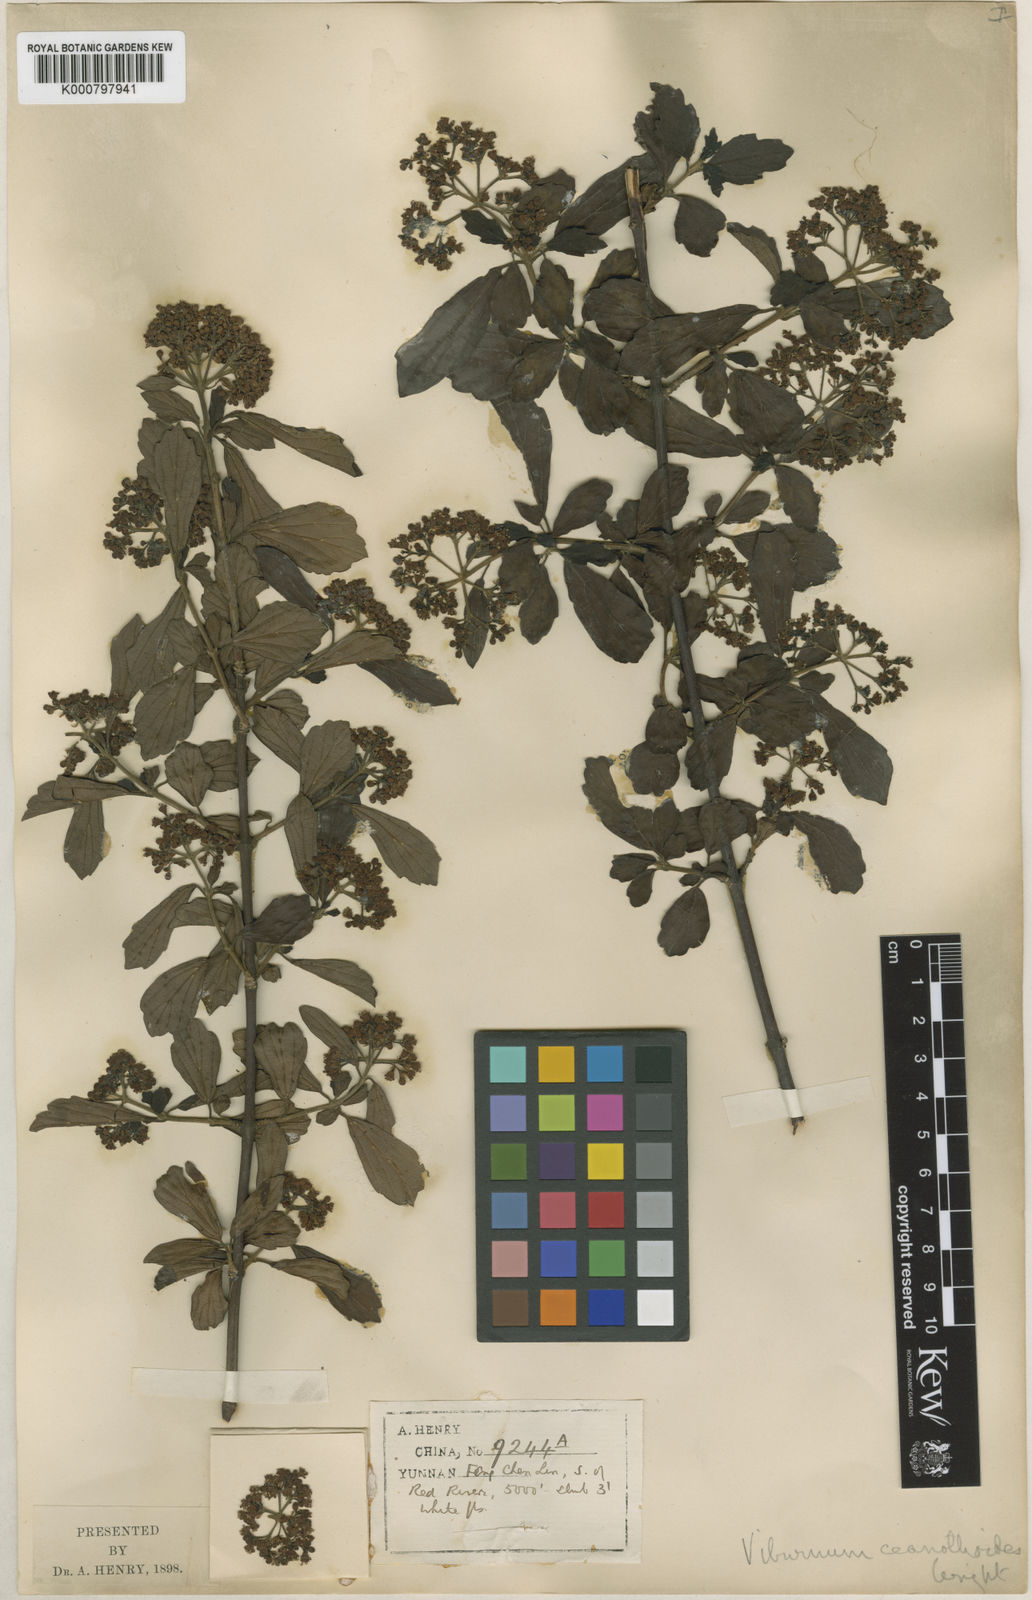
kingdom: Plantae
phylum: Tracheophyta
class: Magnoliopsida
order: Dipsacales
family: Viburnaceae
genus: Viburnum
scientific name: Viburnum foetidum
